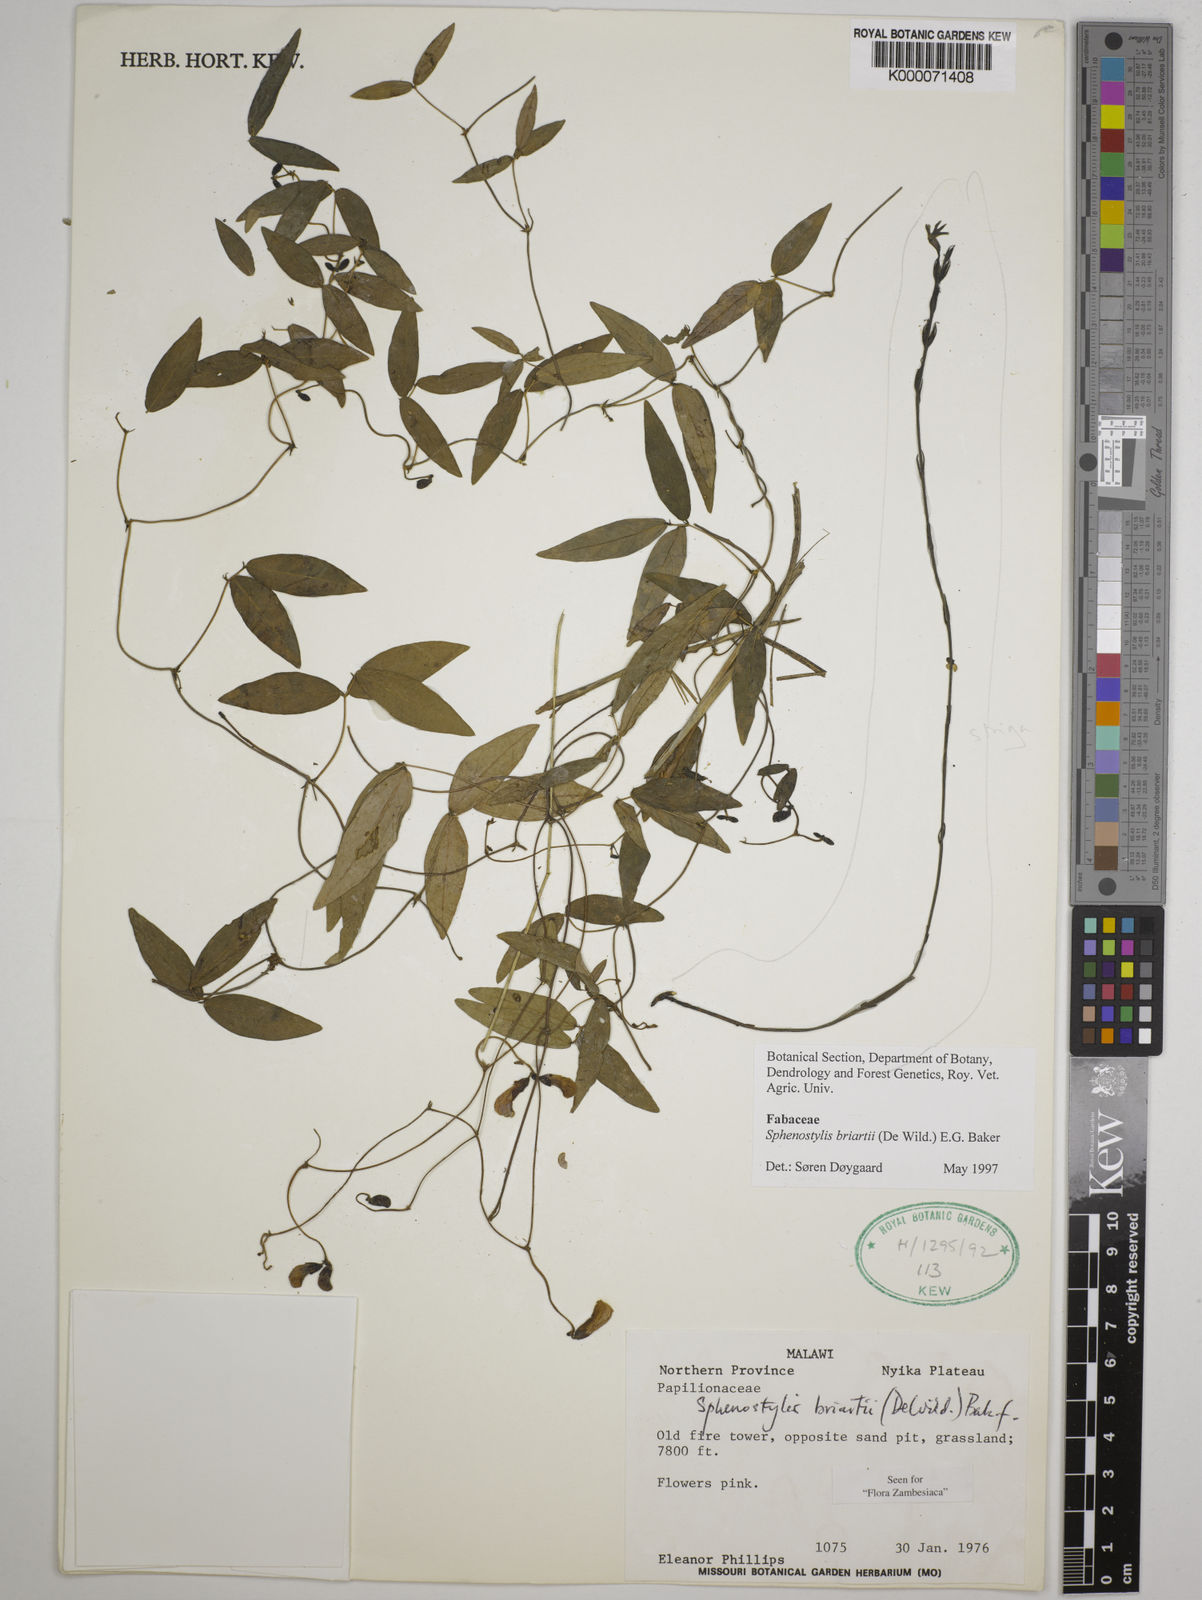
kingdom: Plantae
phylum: Tracheophyta
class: Magnoliopsida
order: Fabales
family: Fabaceae
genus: Sphenostylis
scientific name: Sphenostylis briartii
